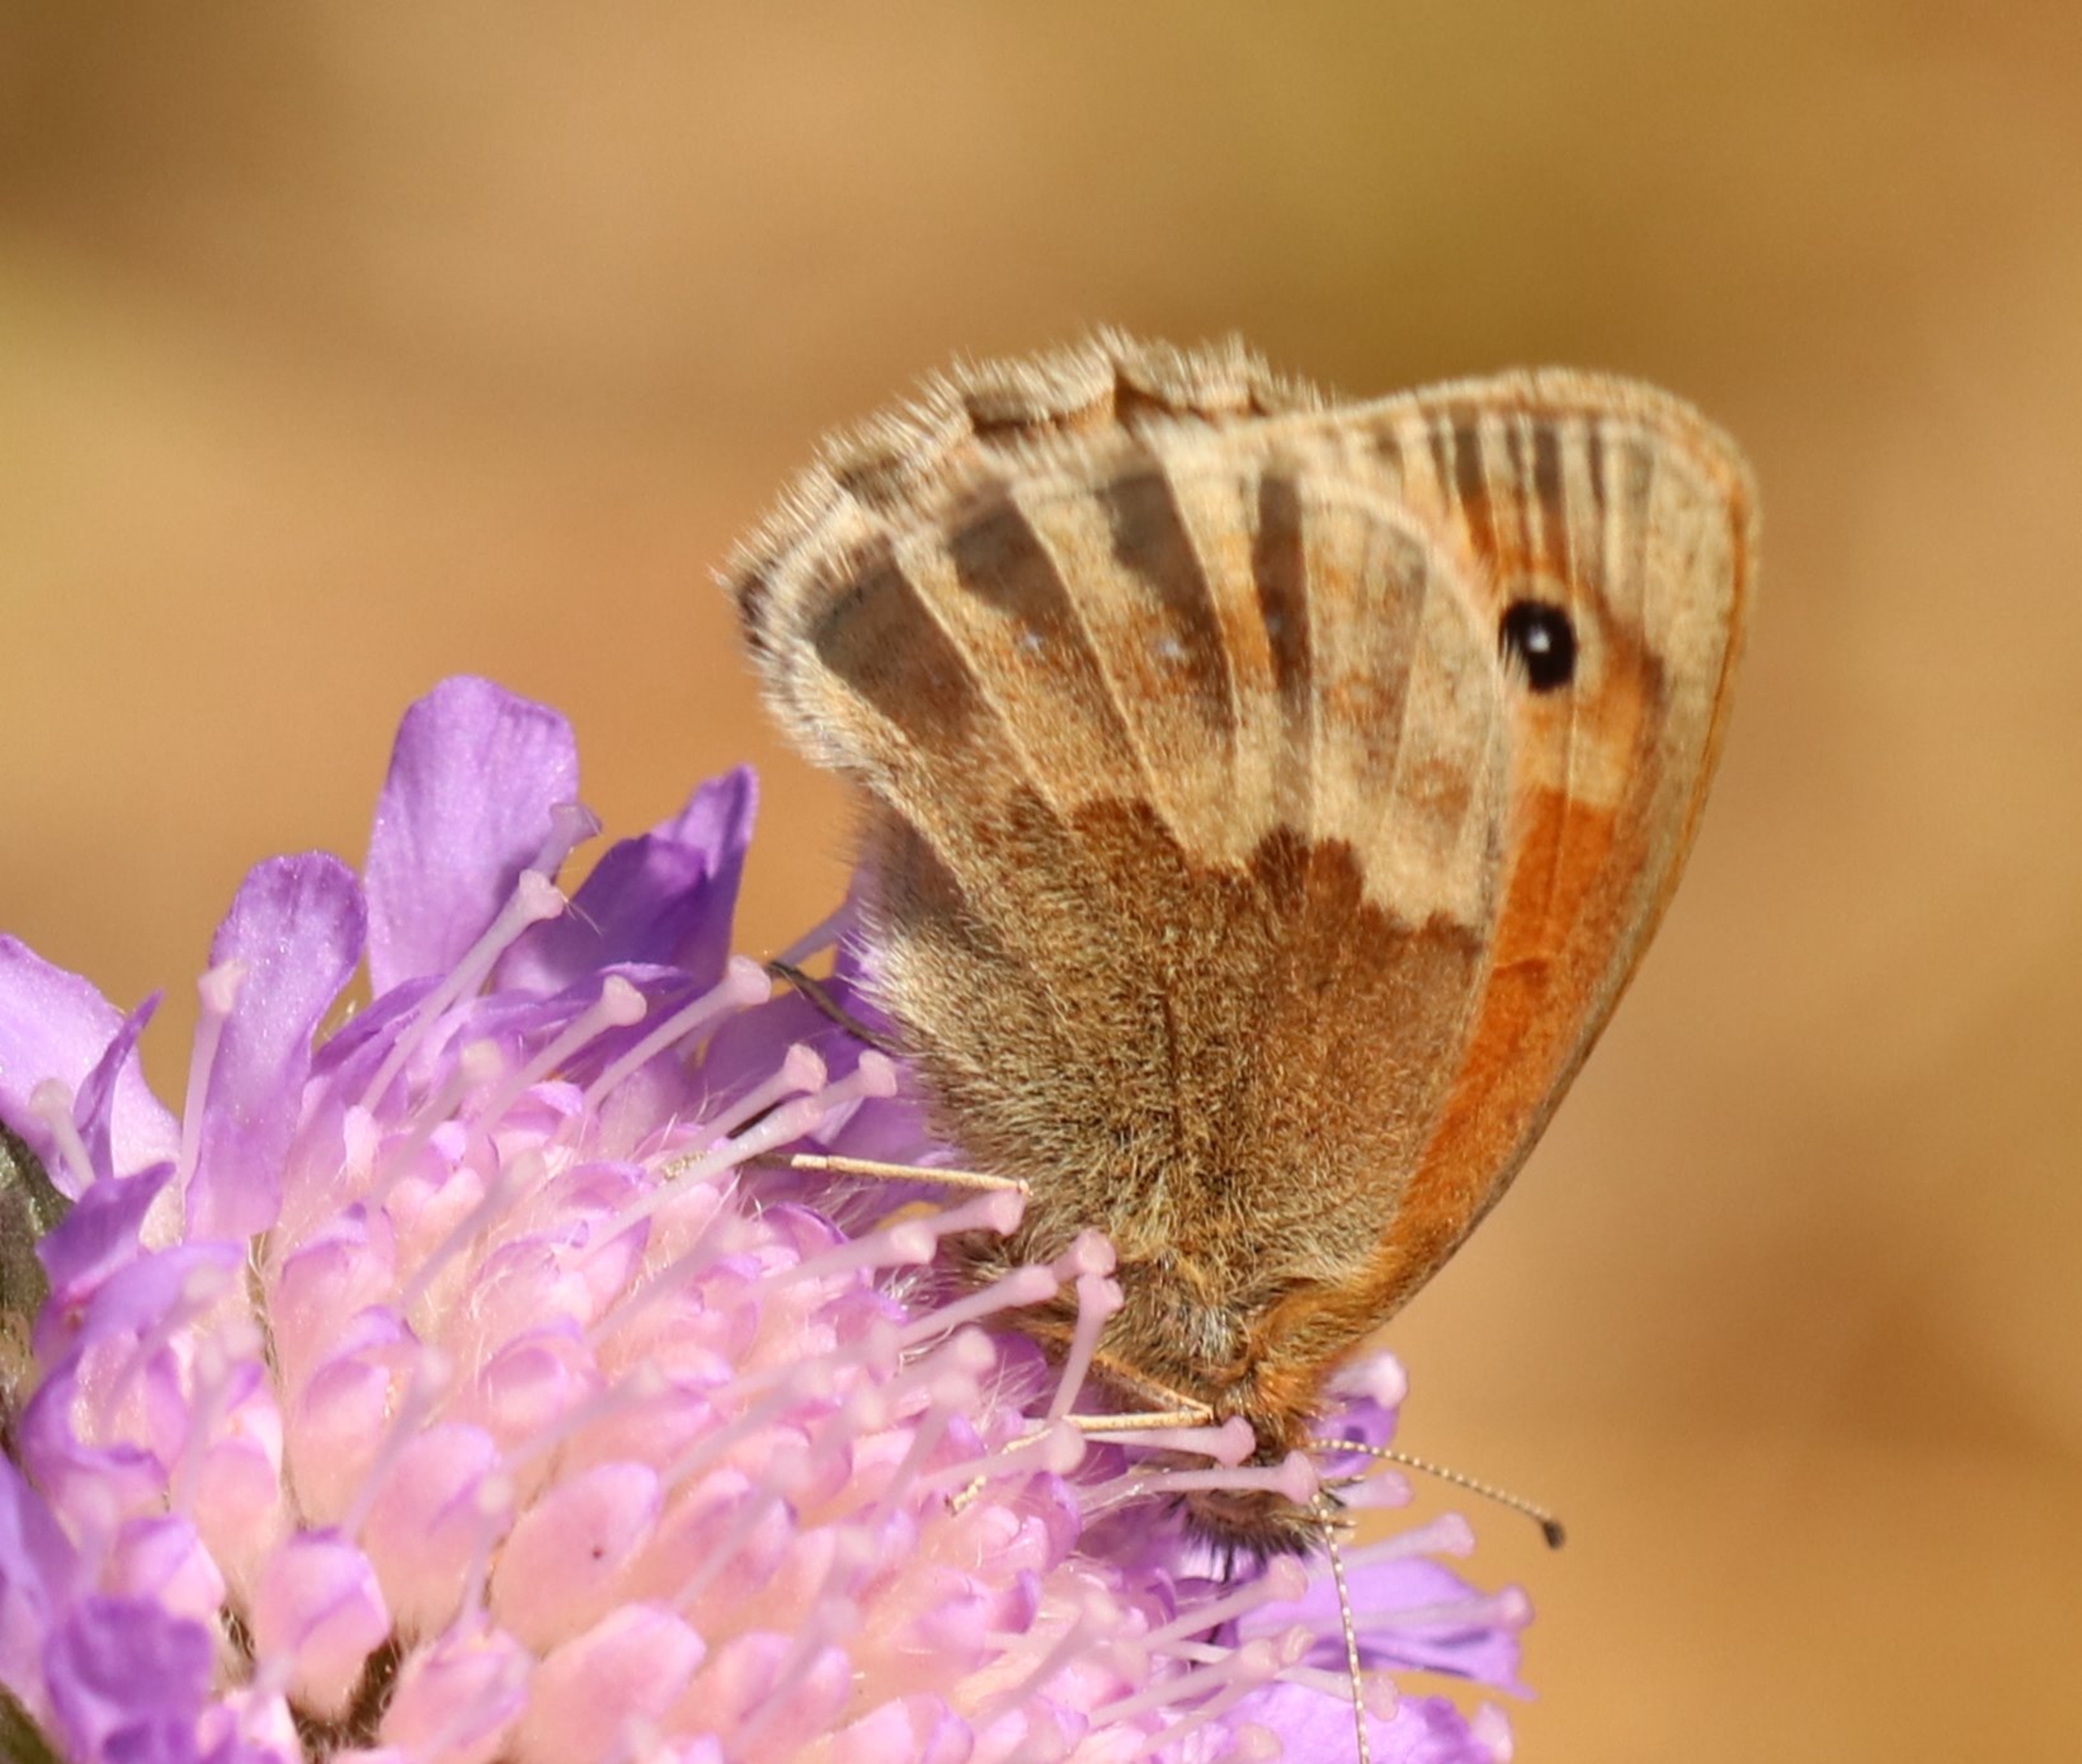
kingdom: Animalia
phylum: Arthropoda
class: Insecta
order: Lepidoptera
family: Nymphalidae
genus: Coenonympha
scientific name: Coenonympha pamphilus
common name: Okkergul randøje
